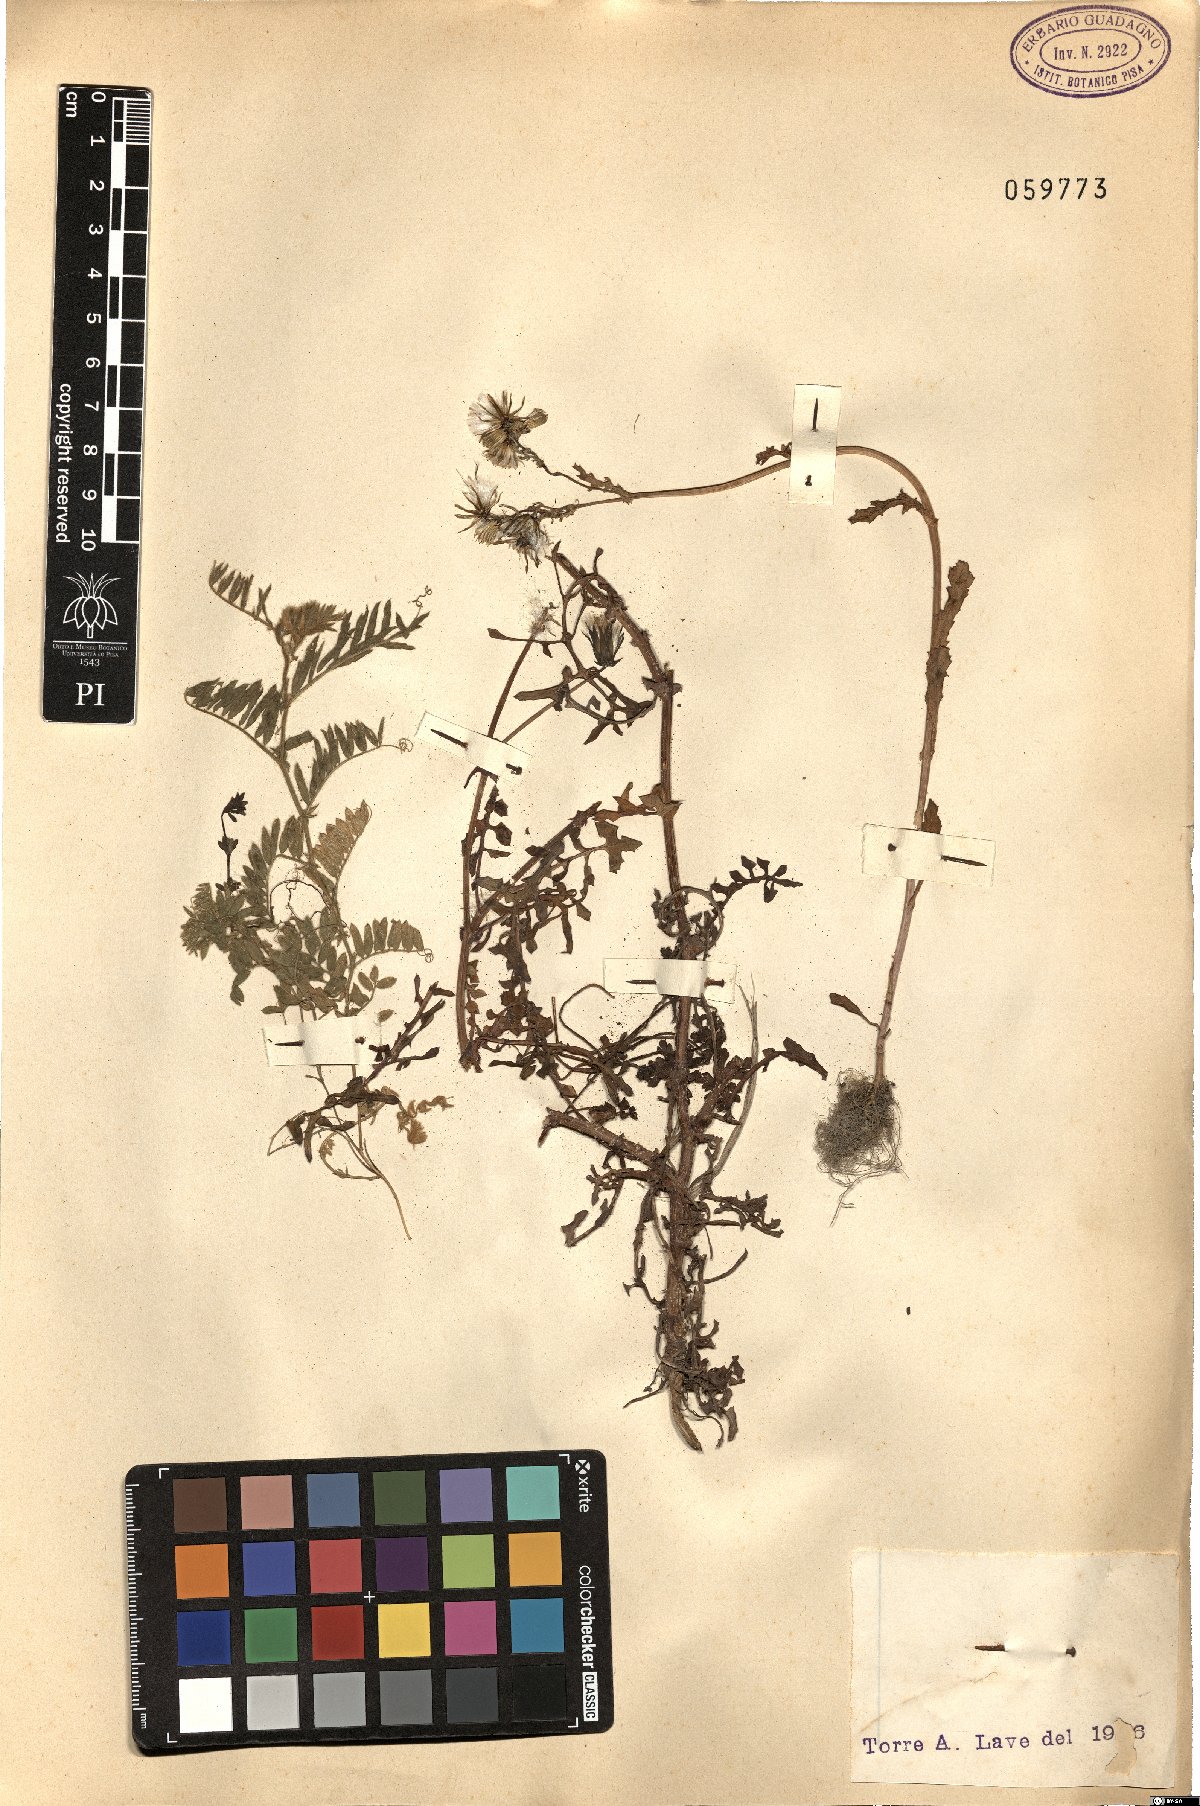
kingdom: Plantae
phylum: Tracheophyta
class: Magnoliopsida
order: Asterales
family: Asteraceae
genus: Senecio
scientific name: Senecio
